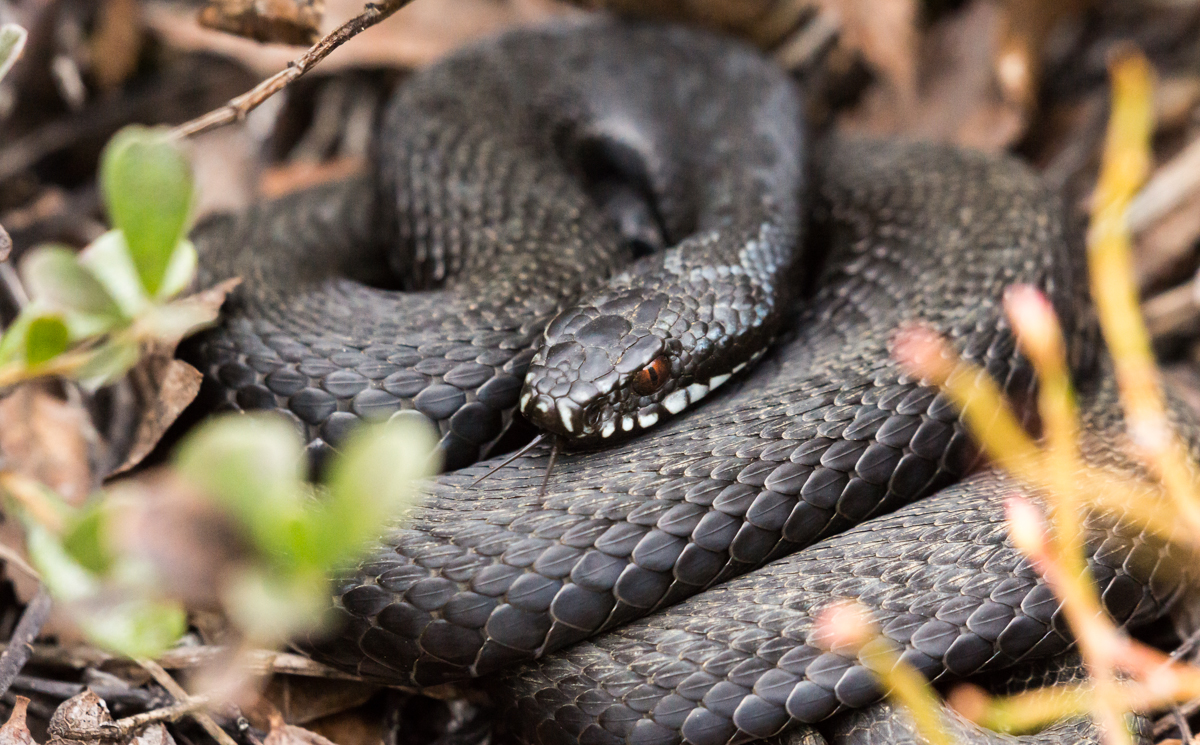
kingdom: Animalia
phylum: Chordata
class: Squamata
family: Viperidae
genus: Vipera
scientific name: Vipera berus
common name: Adder
